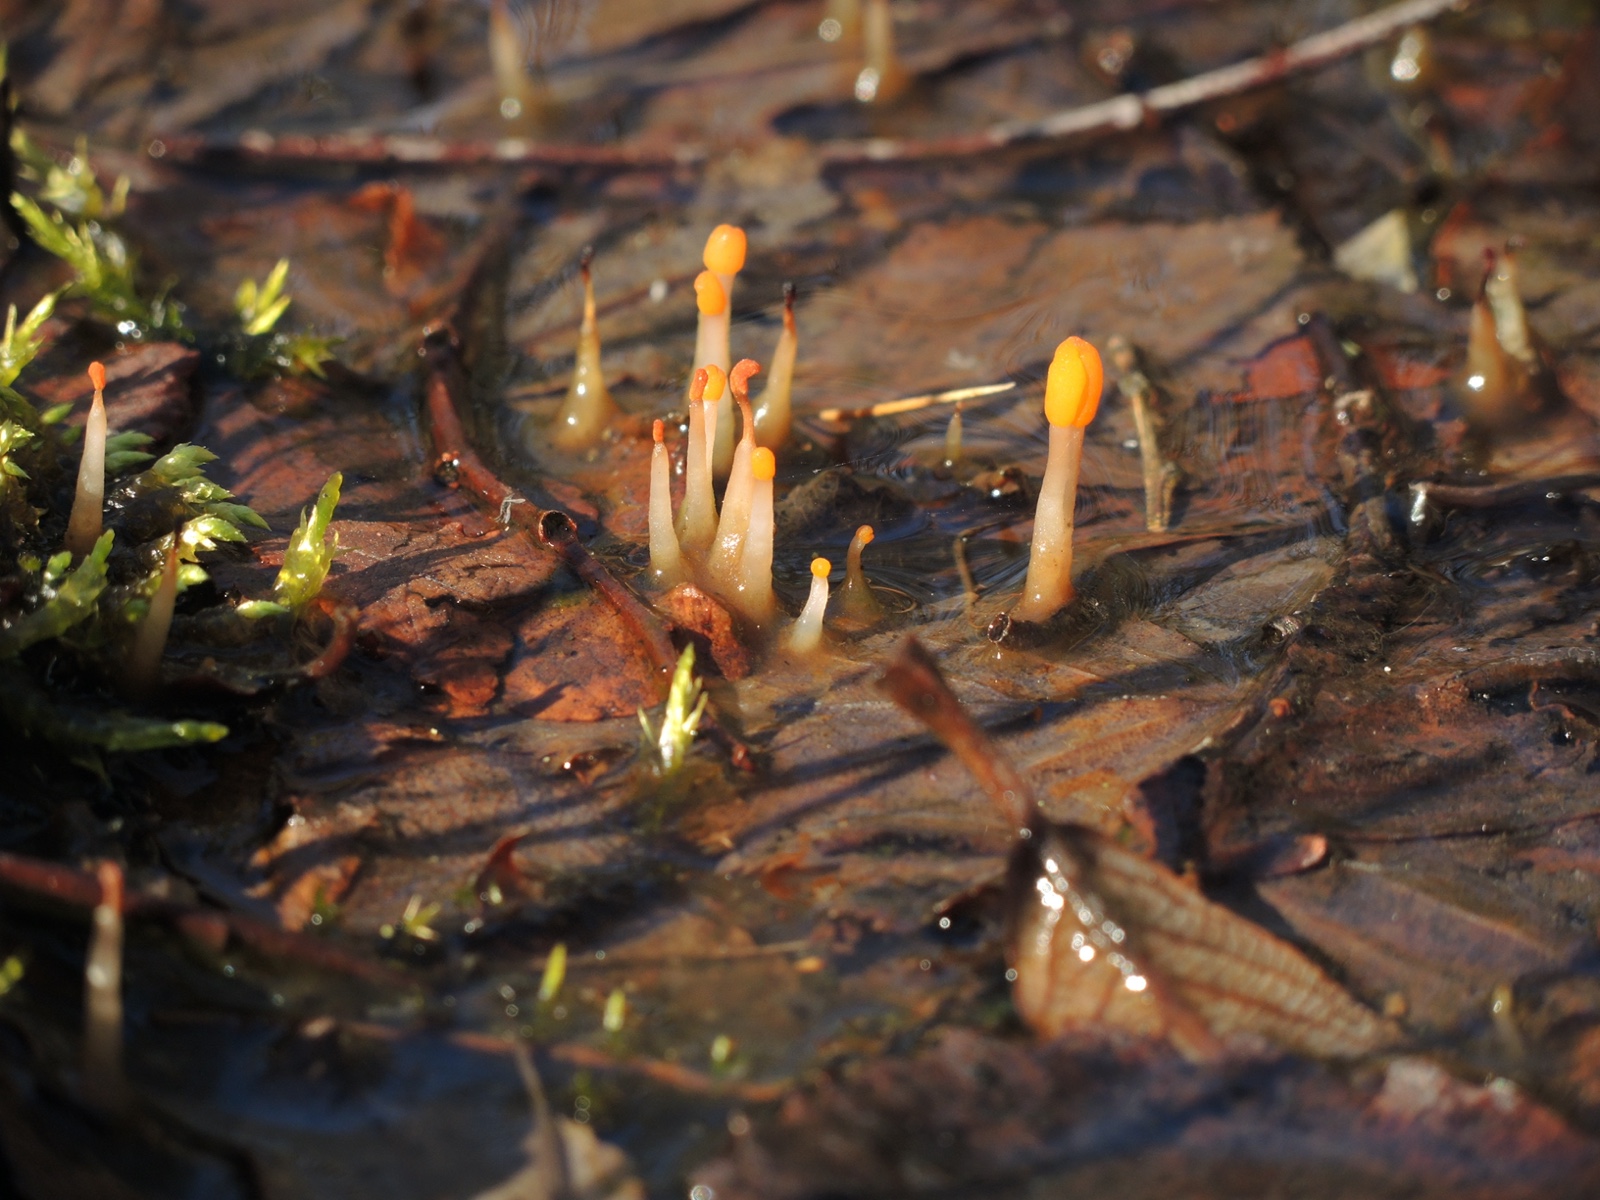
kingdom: Fungi
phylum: Ascomycota
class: Leotiomycetes
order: Helotiales
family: Cenangiaceae
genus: Mitrula
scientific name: Mitrula paludosa
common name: gul nøkketunge
